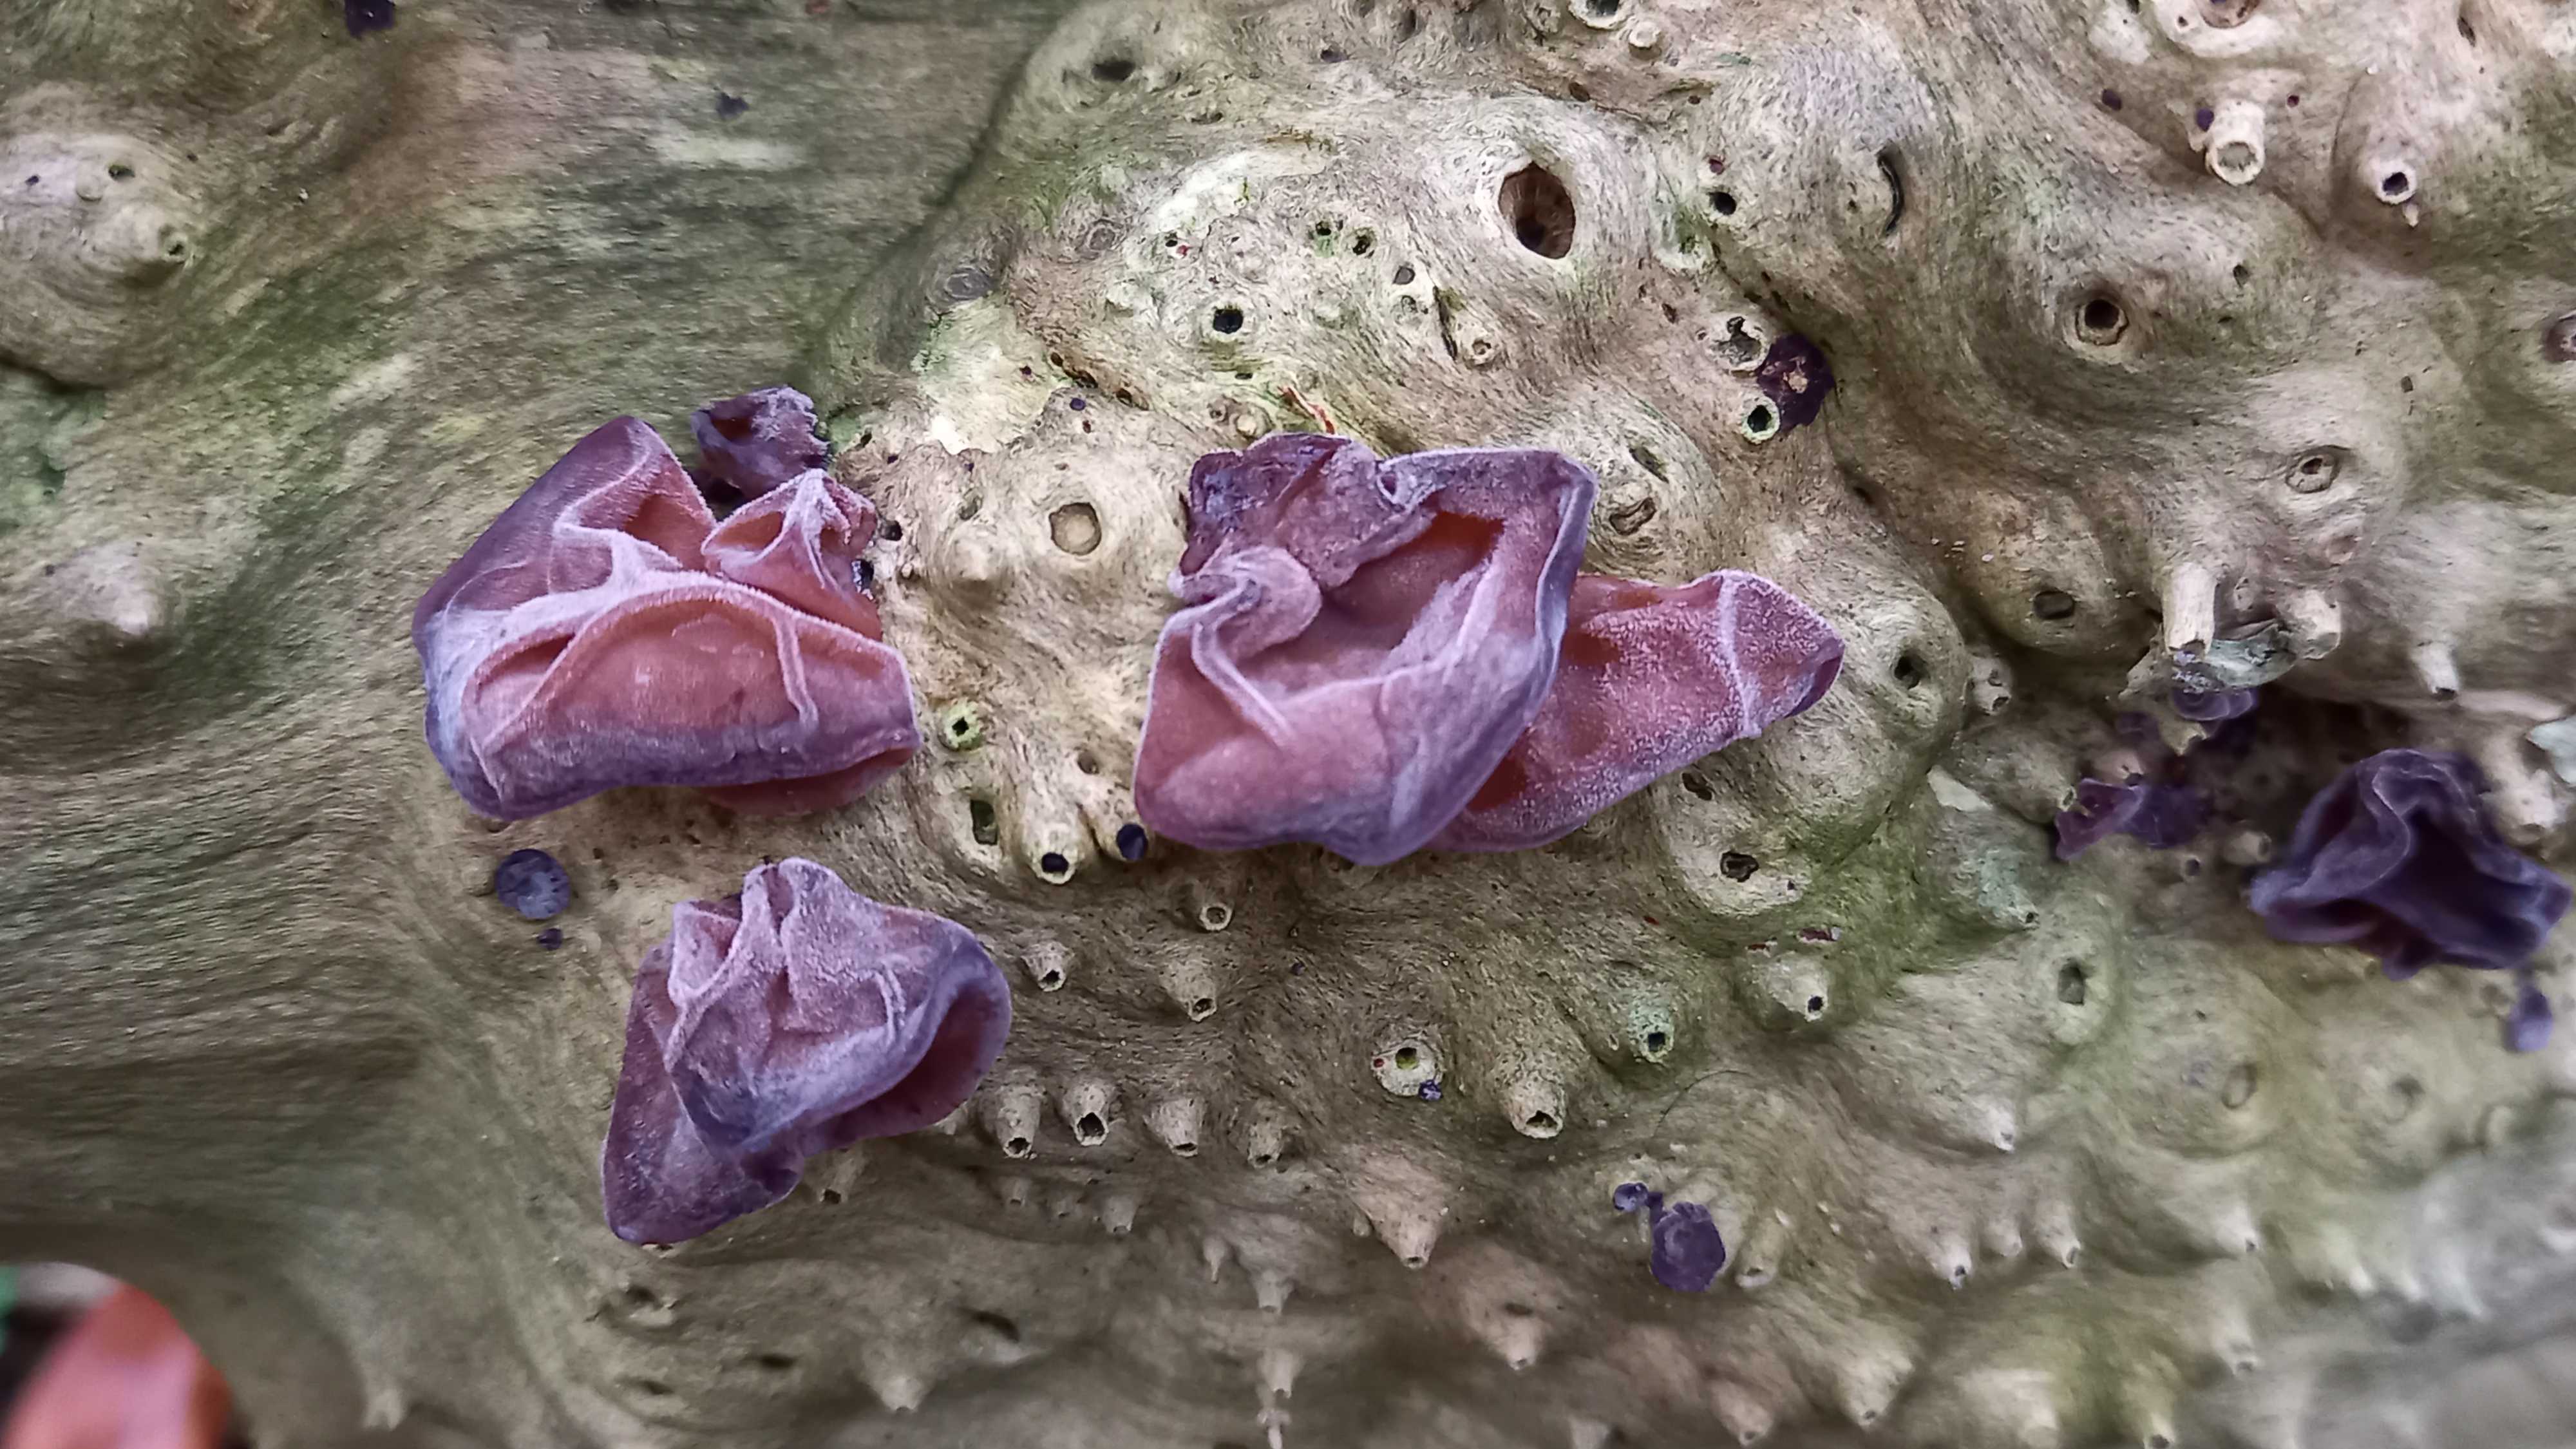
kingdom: Fungi
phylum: Basidiomycota
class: Agaricomycetes
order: Auriculariales
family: Auriculariaceae
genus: Auricularia
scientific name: Auricularia auricula-judae
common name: almindelig judasøre
